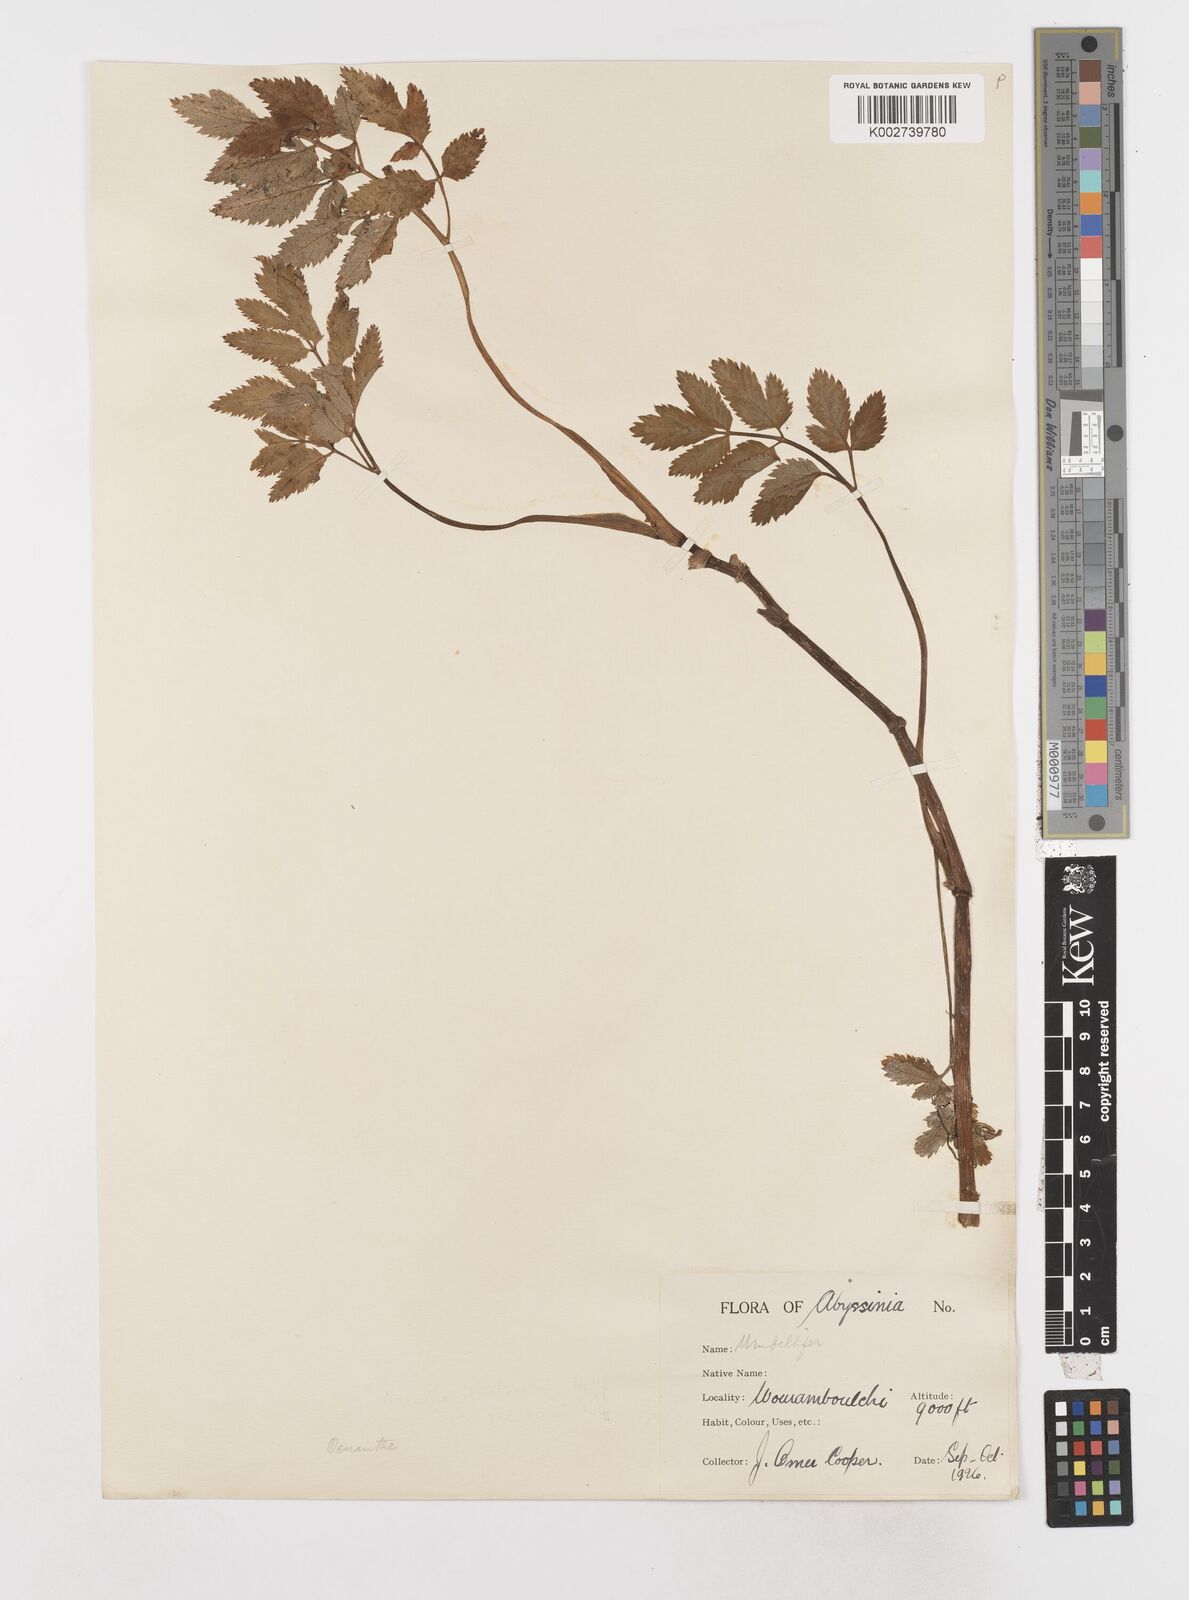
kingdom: Plantae
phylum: Tracheophyta
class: Magnoliopsida
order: Apiales
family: Apiaceae
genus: Oenanthe
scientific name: Oenanthe
